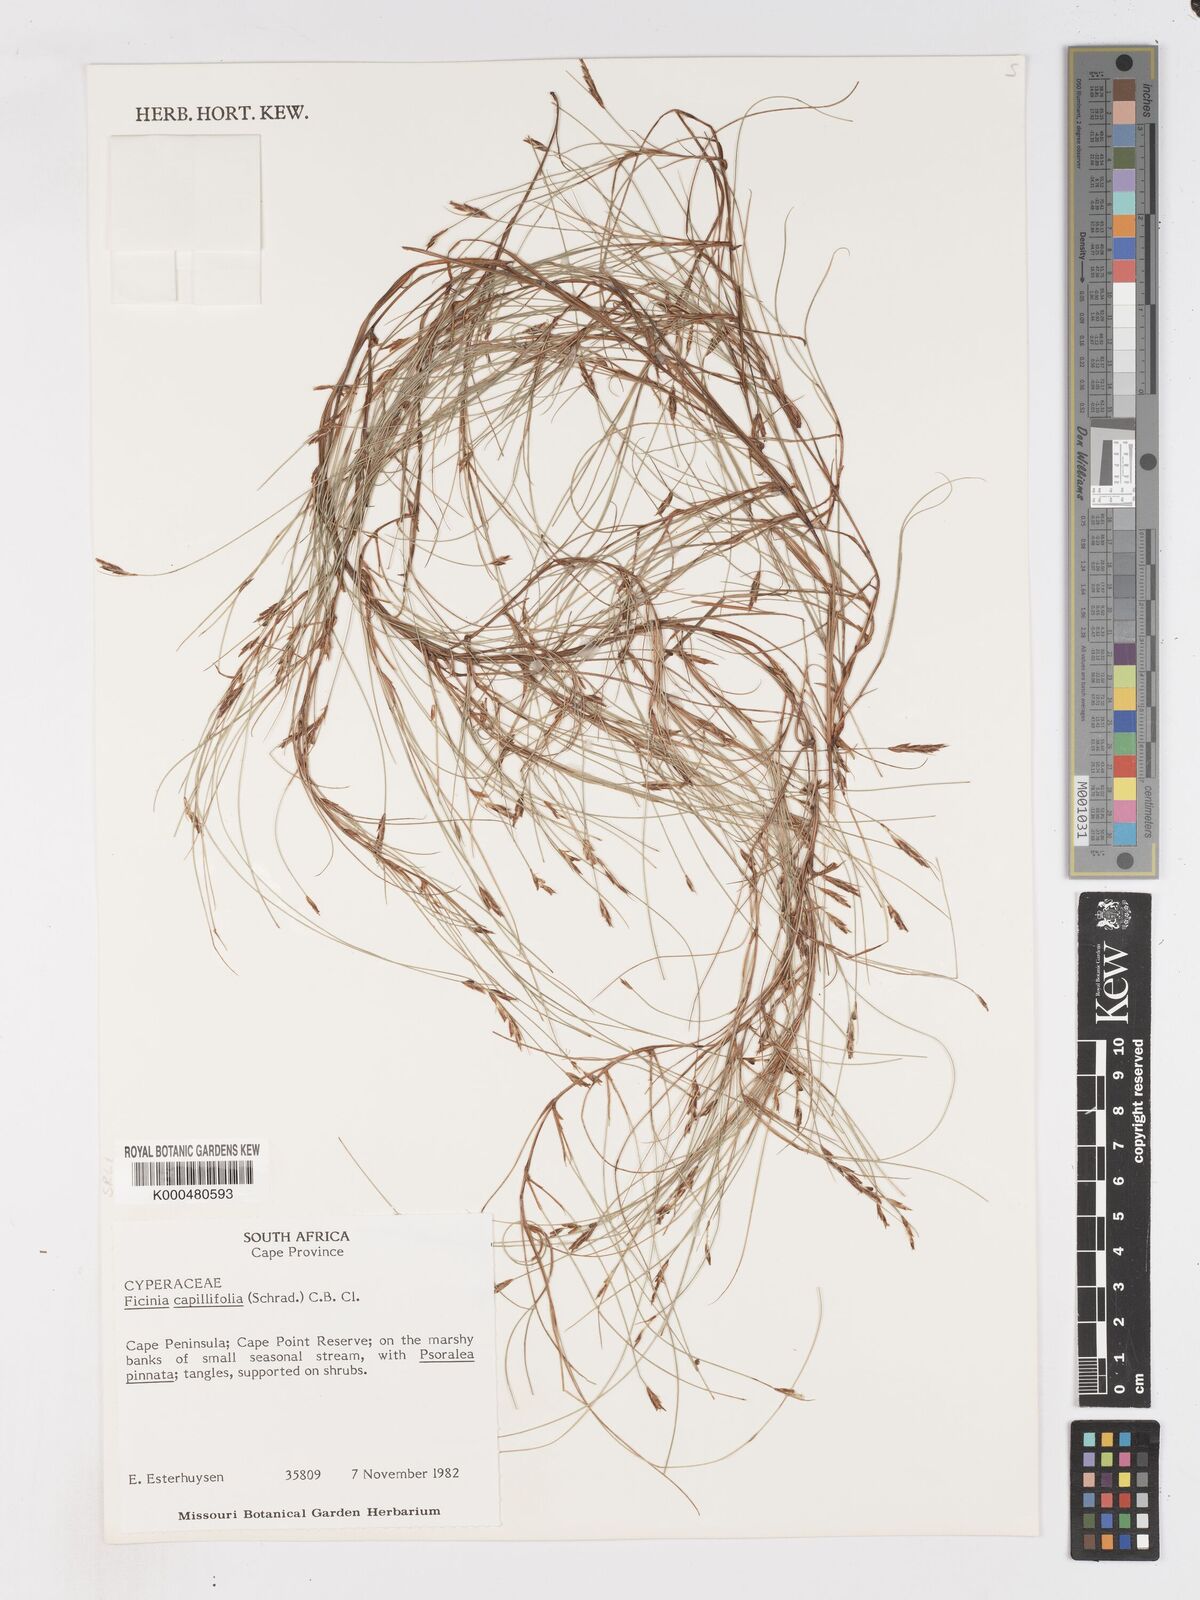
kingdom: Plantae
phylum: Tracheophyta
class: Liliopsida
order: Poales
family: Cyperaceae
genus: Ficinia
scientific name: Ficinia capillifolia
